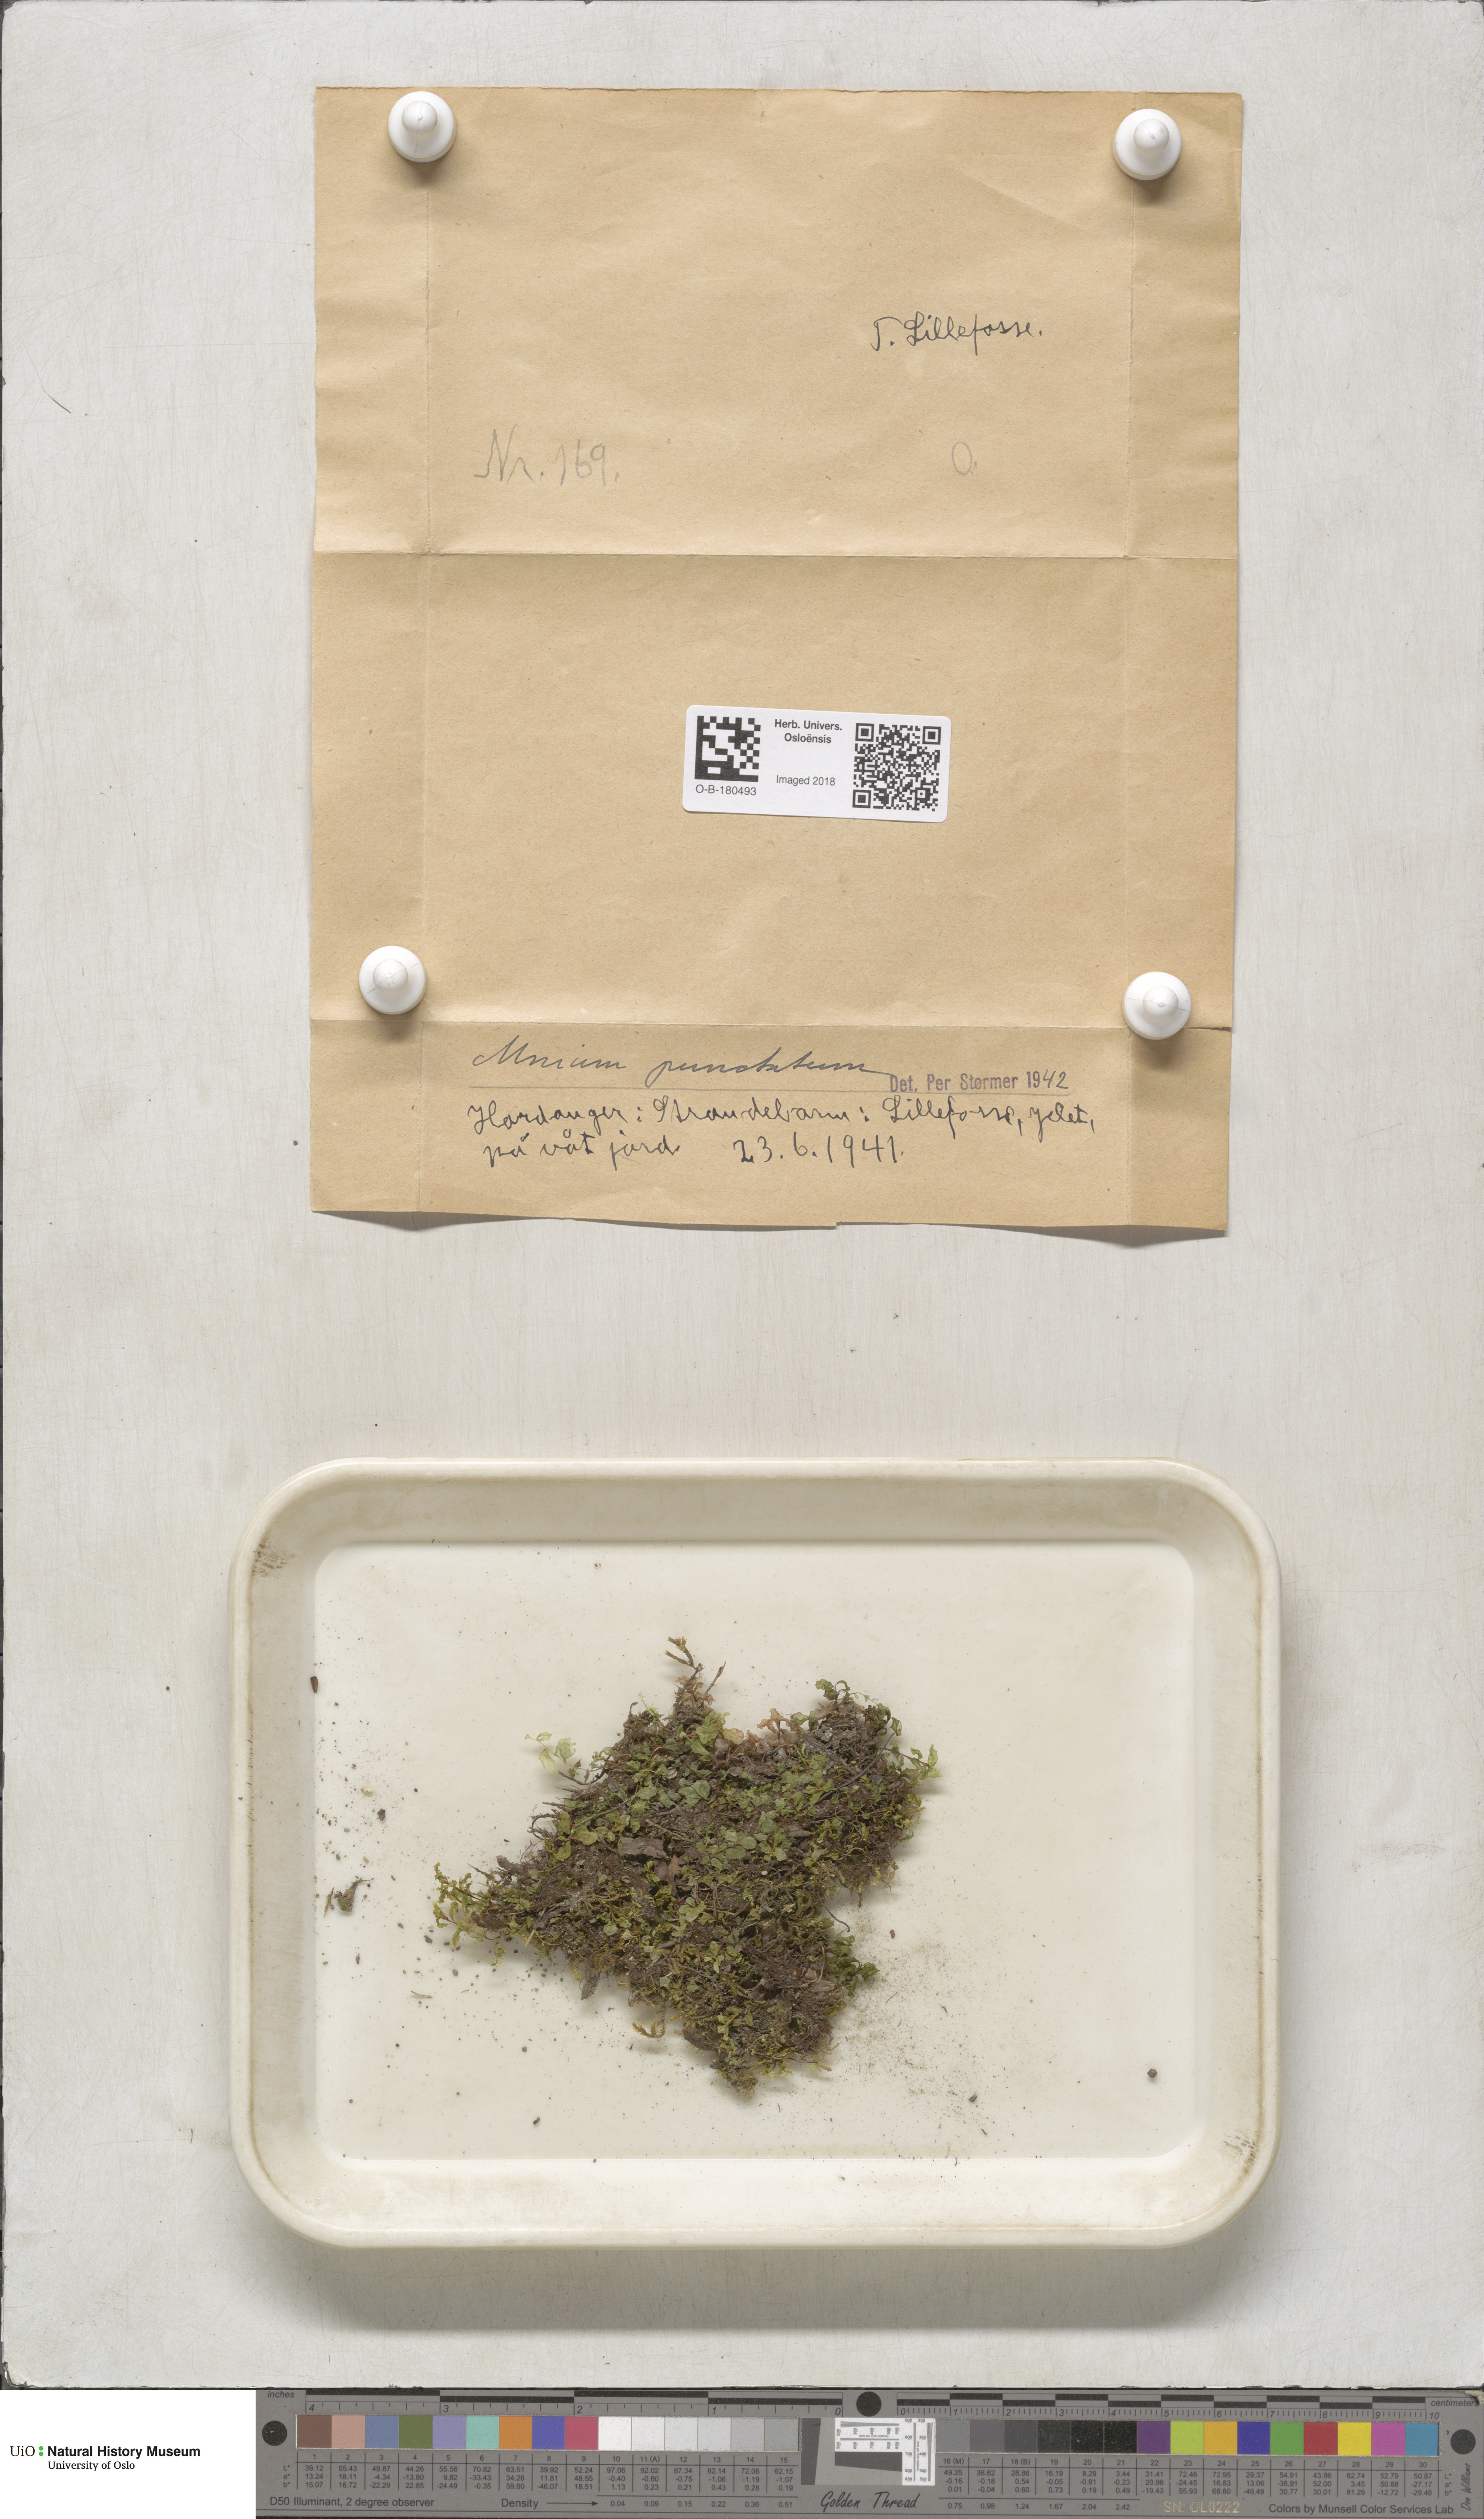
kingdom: Plantae
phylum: Bryophyta
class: Bryopsida
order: Bryales
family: Mniaceae
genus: Rhizomnium
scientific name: Rhizomnium punctatum
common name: Dotted leafy moss
